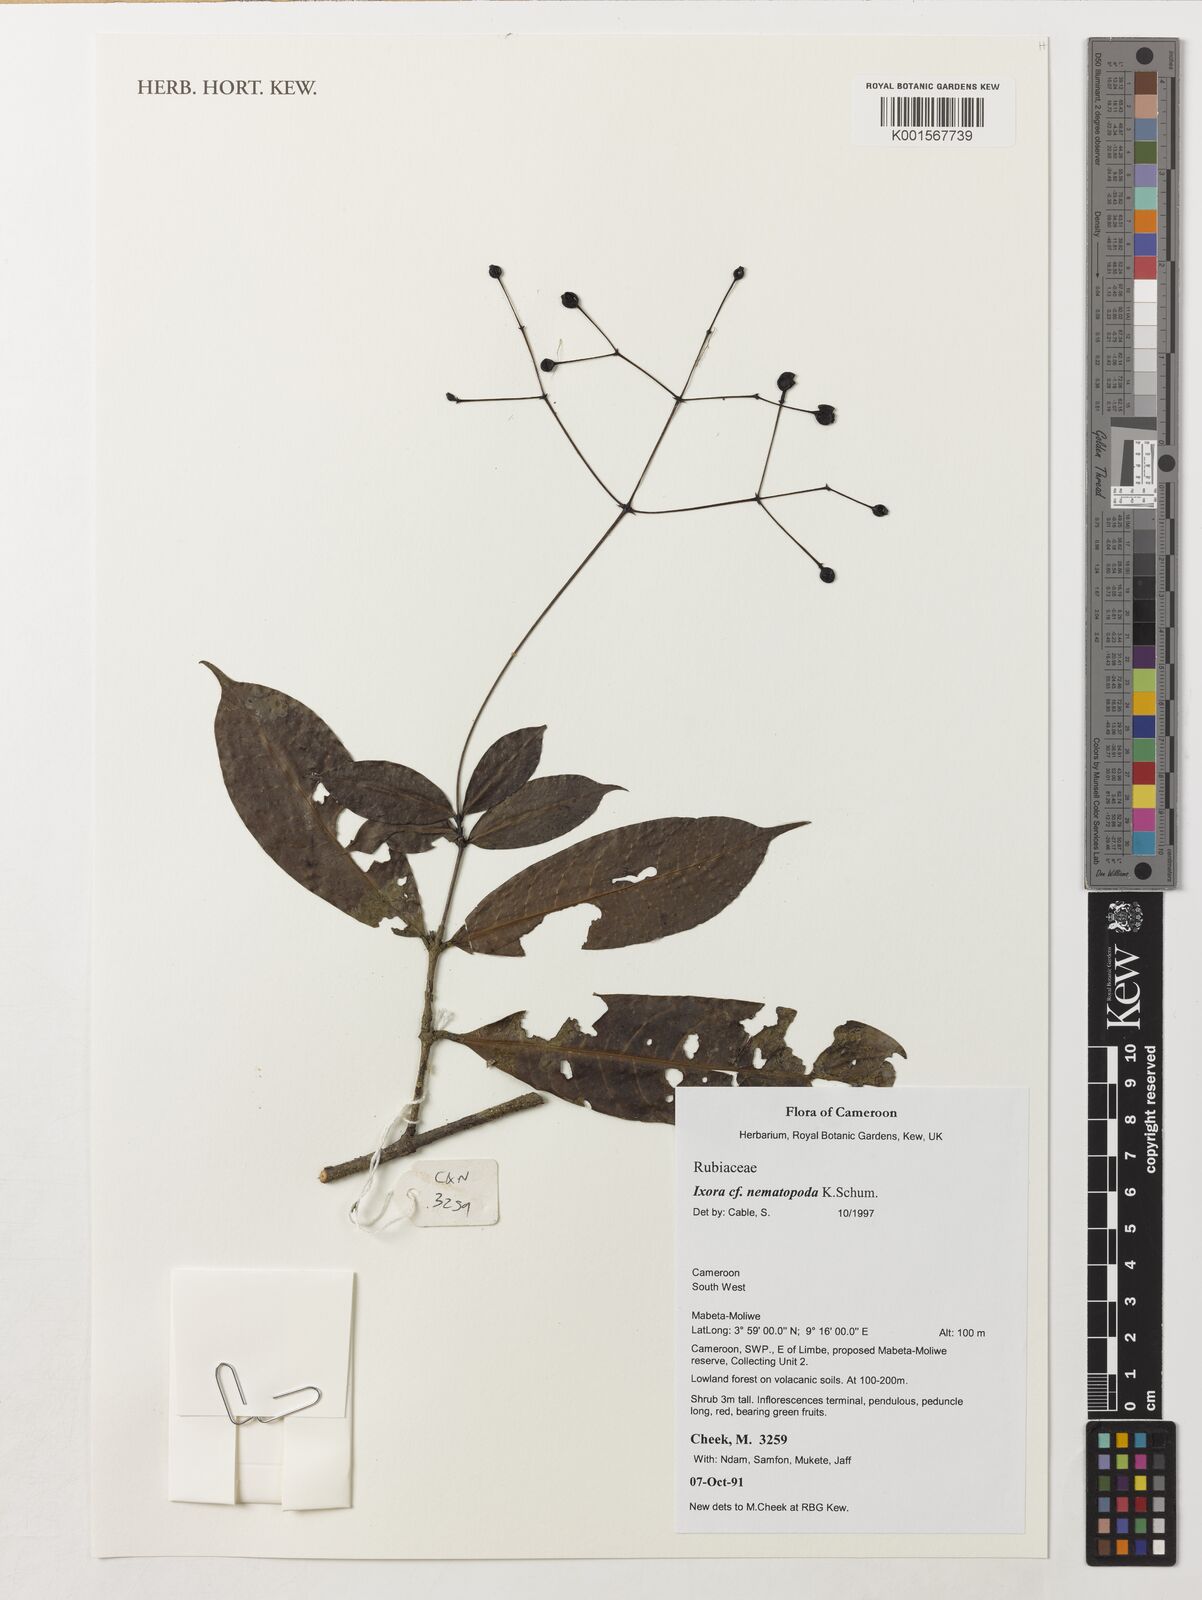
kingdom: Plantae
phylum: Tracheophyta
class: Magnoliopsida
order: Gentianales
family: Rubiaceae
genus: Ixora
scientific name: Ixora nematopoda
